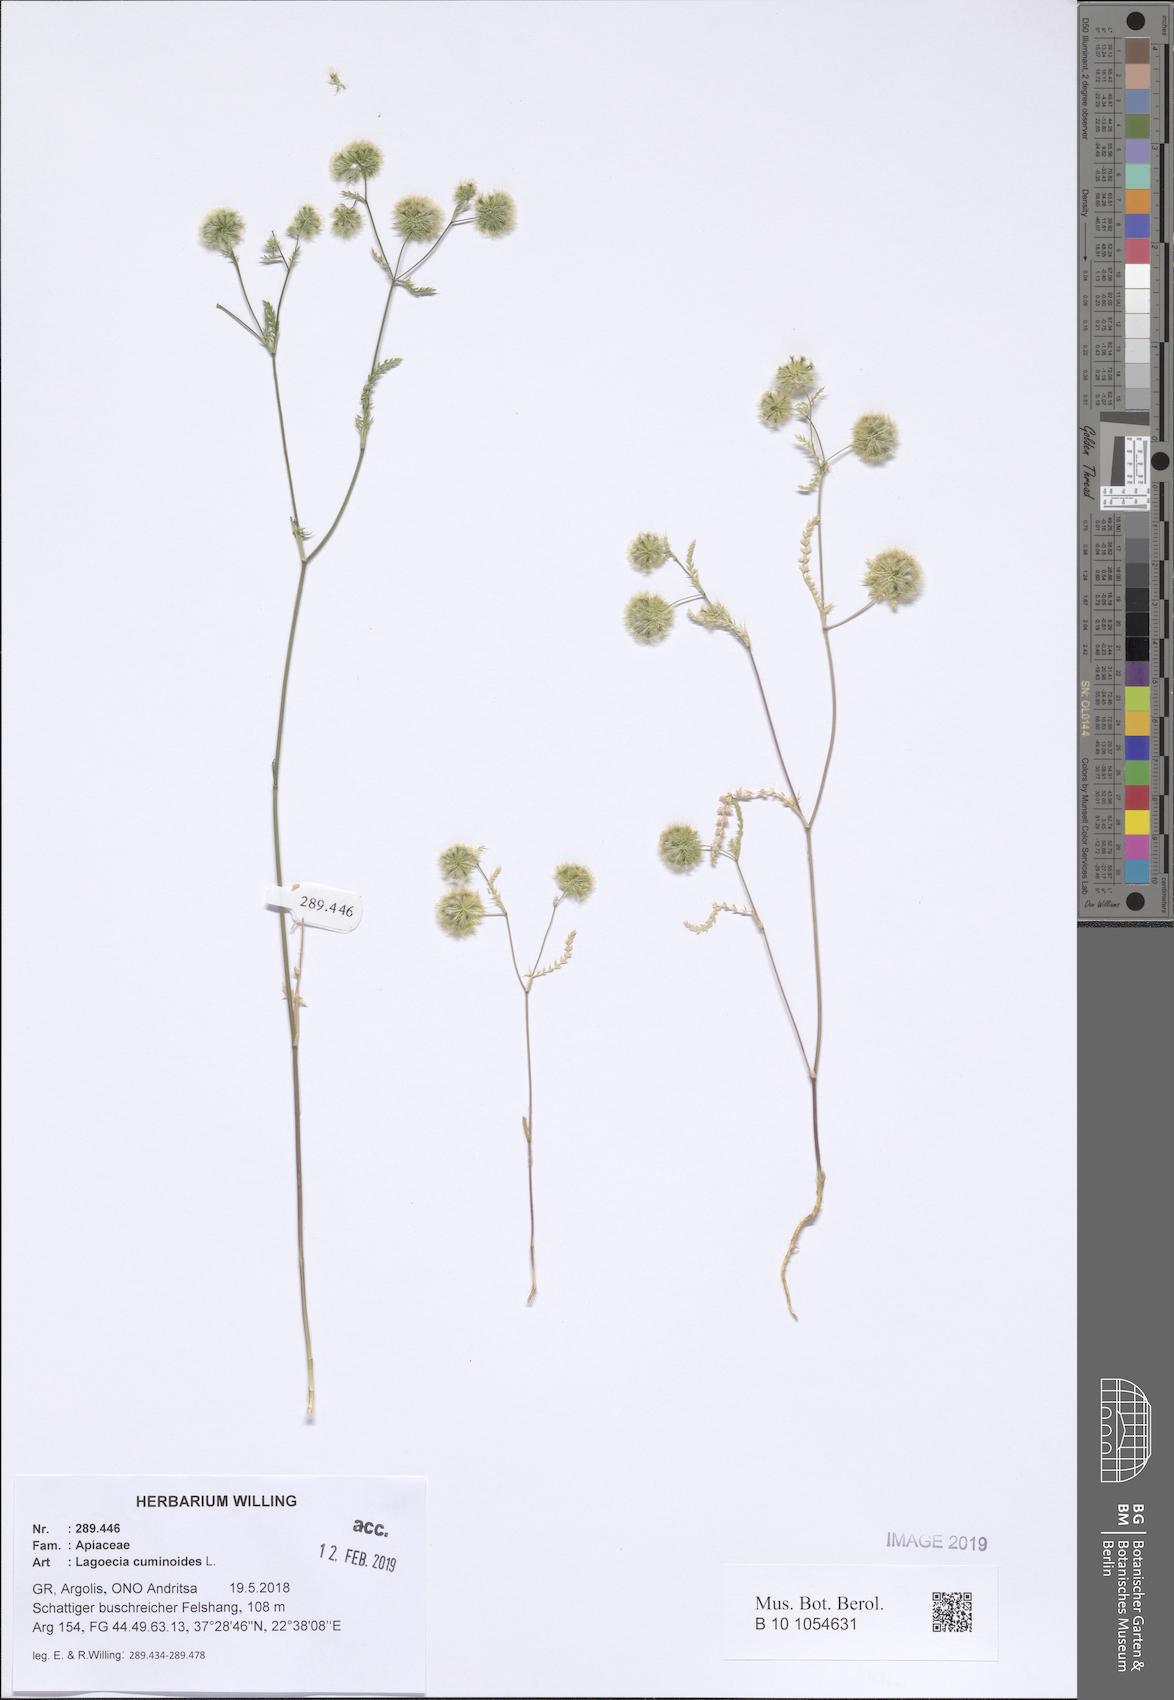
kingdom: Plantae
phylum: Tracheophyta
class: Magnoliopsida
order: Apiales
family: Apiaceae
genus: Lagoecia
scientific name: Lagoecia cuminoides
